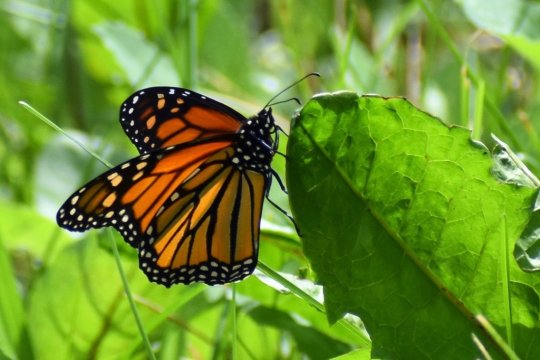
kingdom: Animalia
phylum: Arthropoda
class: Insecta
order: Lepidoptera
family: Nymphalidae
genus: Danaus
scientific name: Danaus plexippus
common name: Monarch
